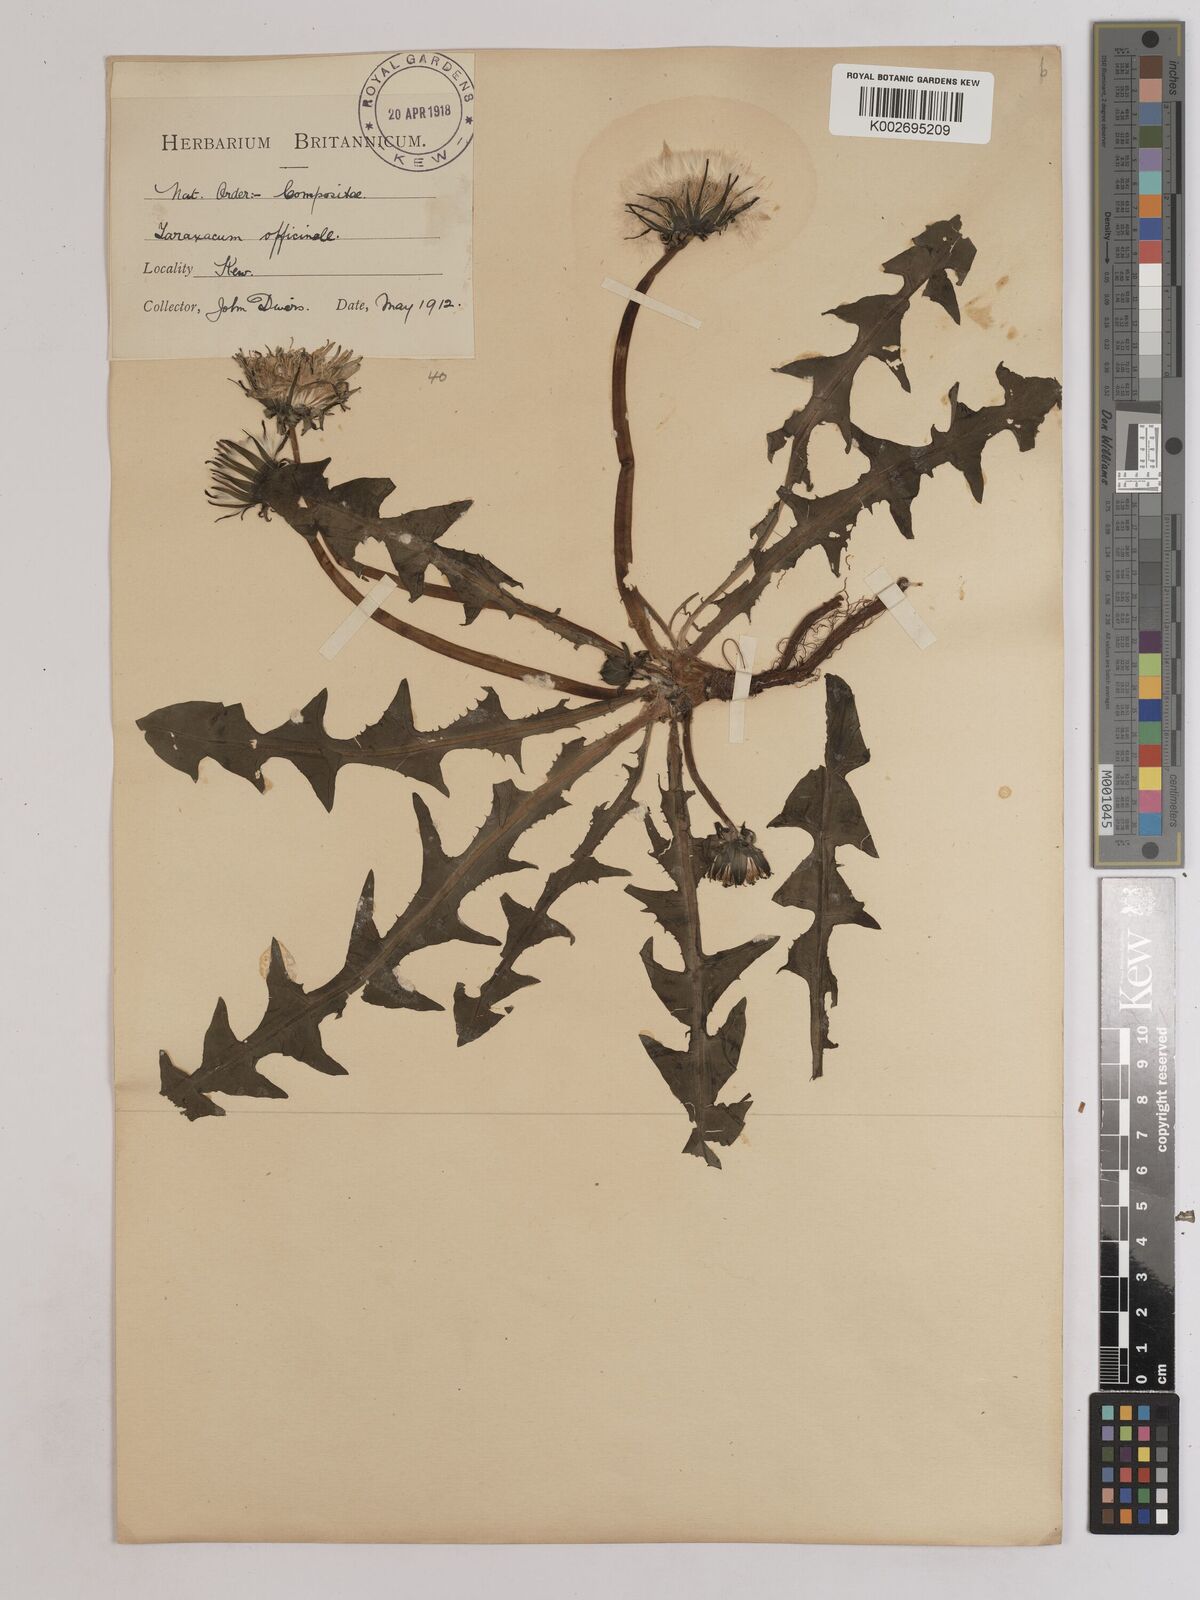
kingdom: Plantae
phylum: Tracheophyta
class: Magnoliopsida
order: Asterales
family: Asteraceae
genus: Taraxacum
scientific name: Taraxacum officinale
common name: Common dandelion
